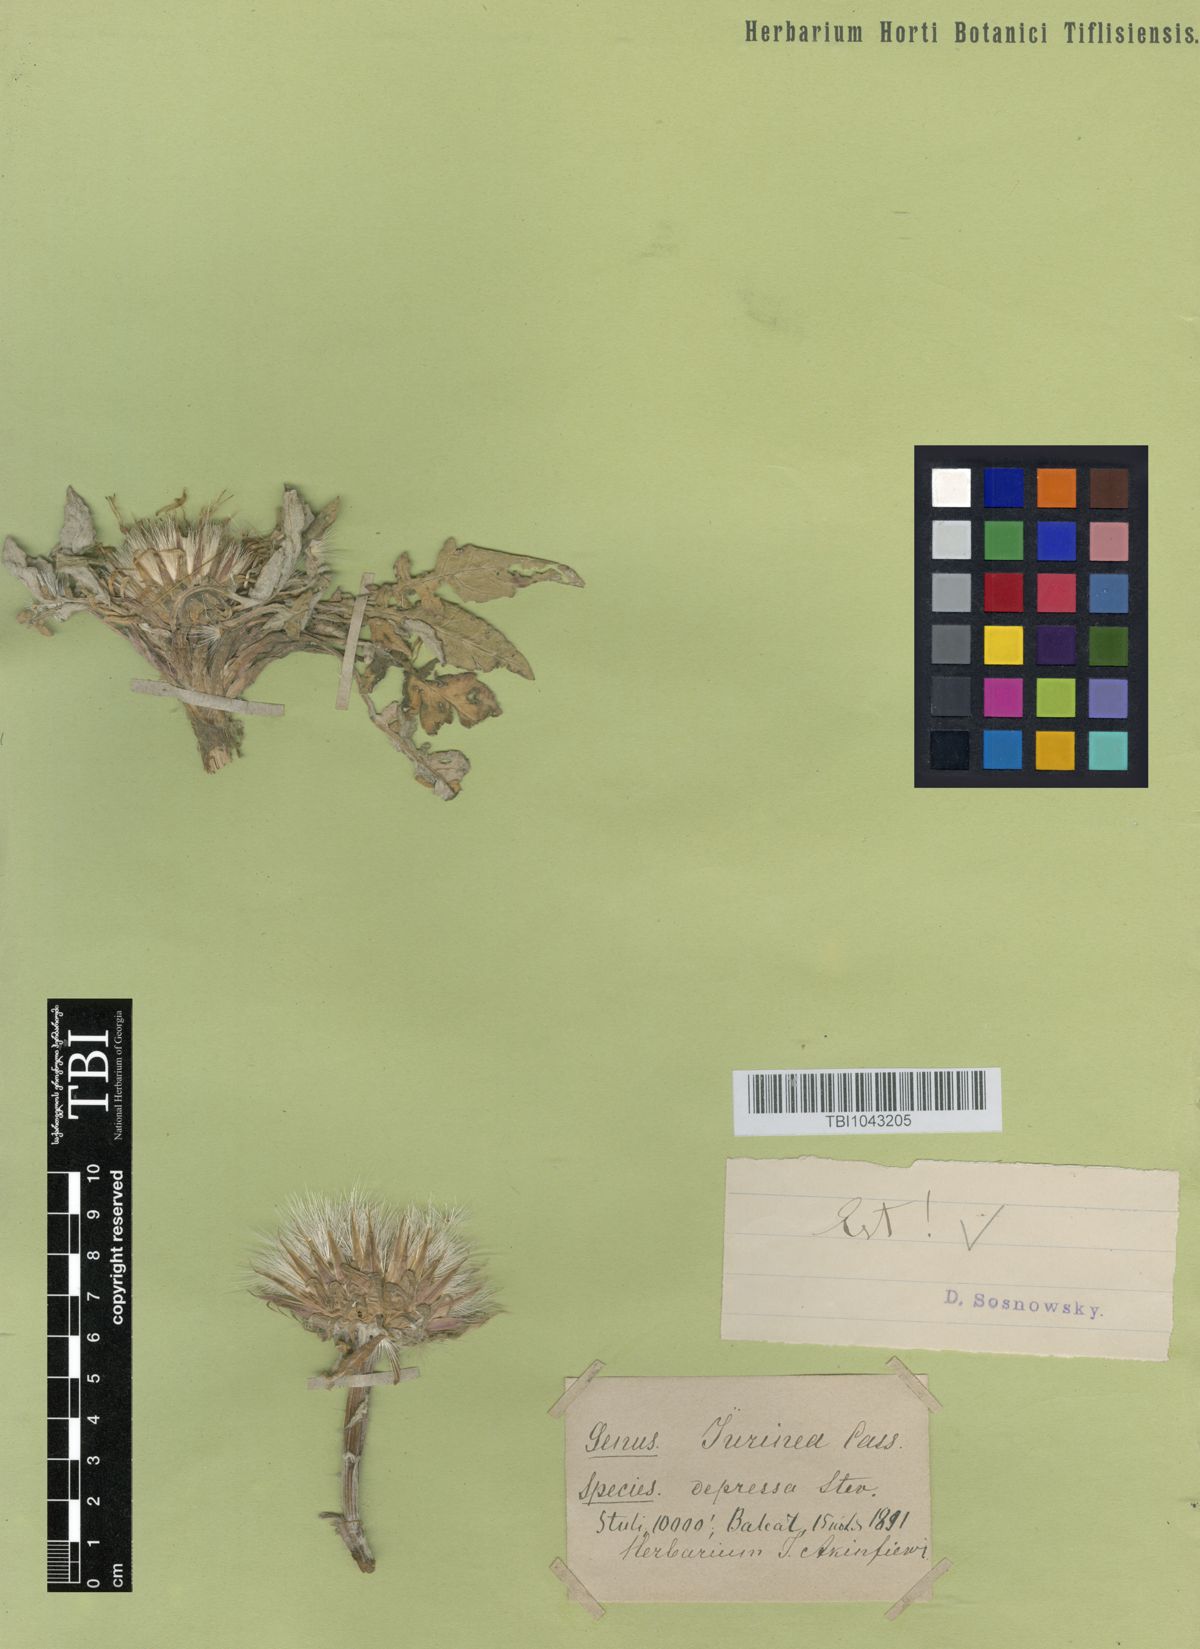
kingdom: Plantae
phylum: Tracheophyta
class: Magnoliopsida
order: Asterales
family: Asteraceae
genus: Jurinea
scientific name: Jurinea moschus
